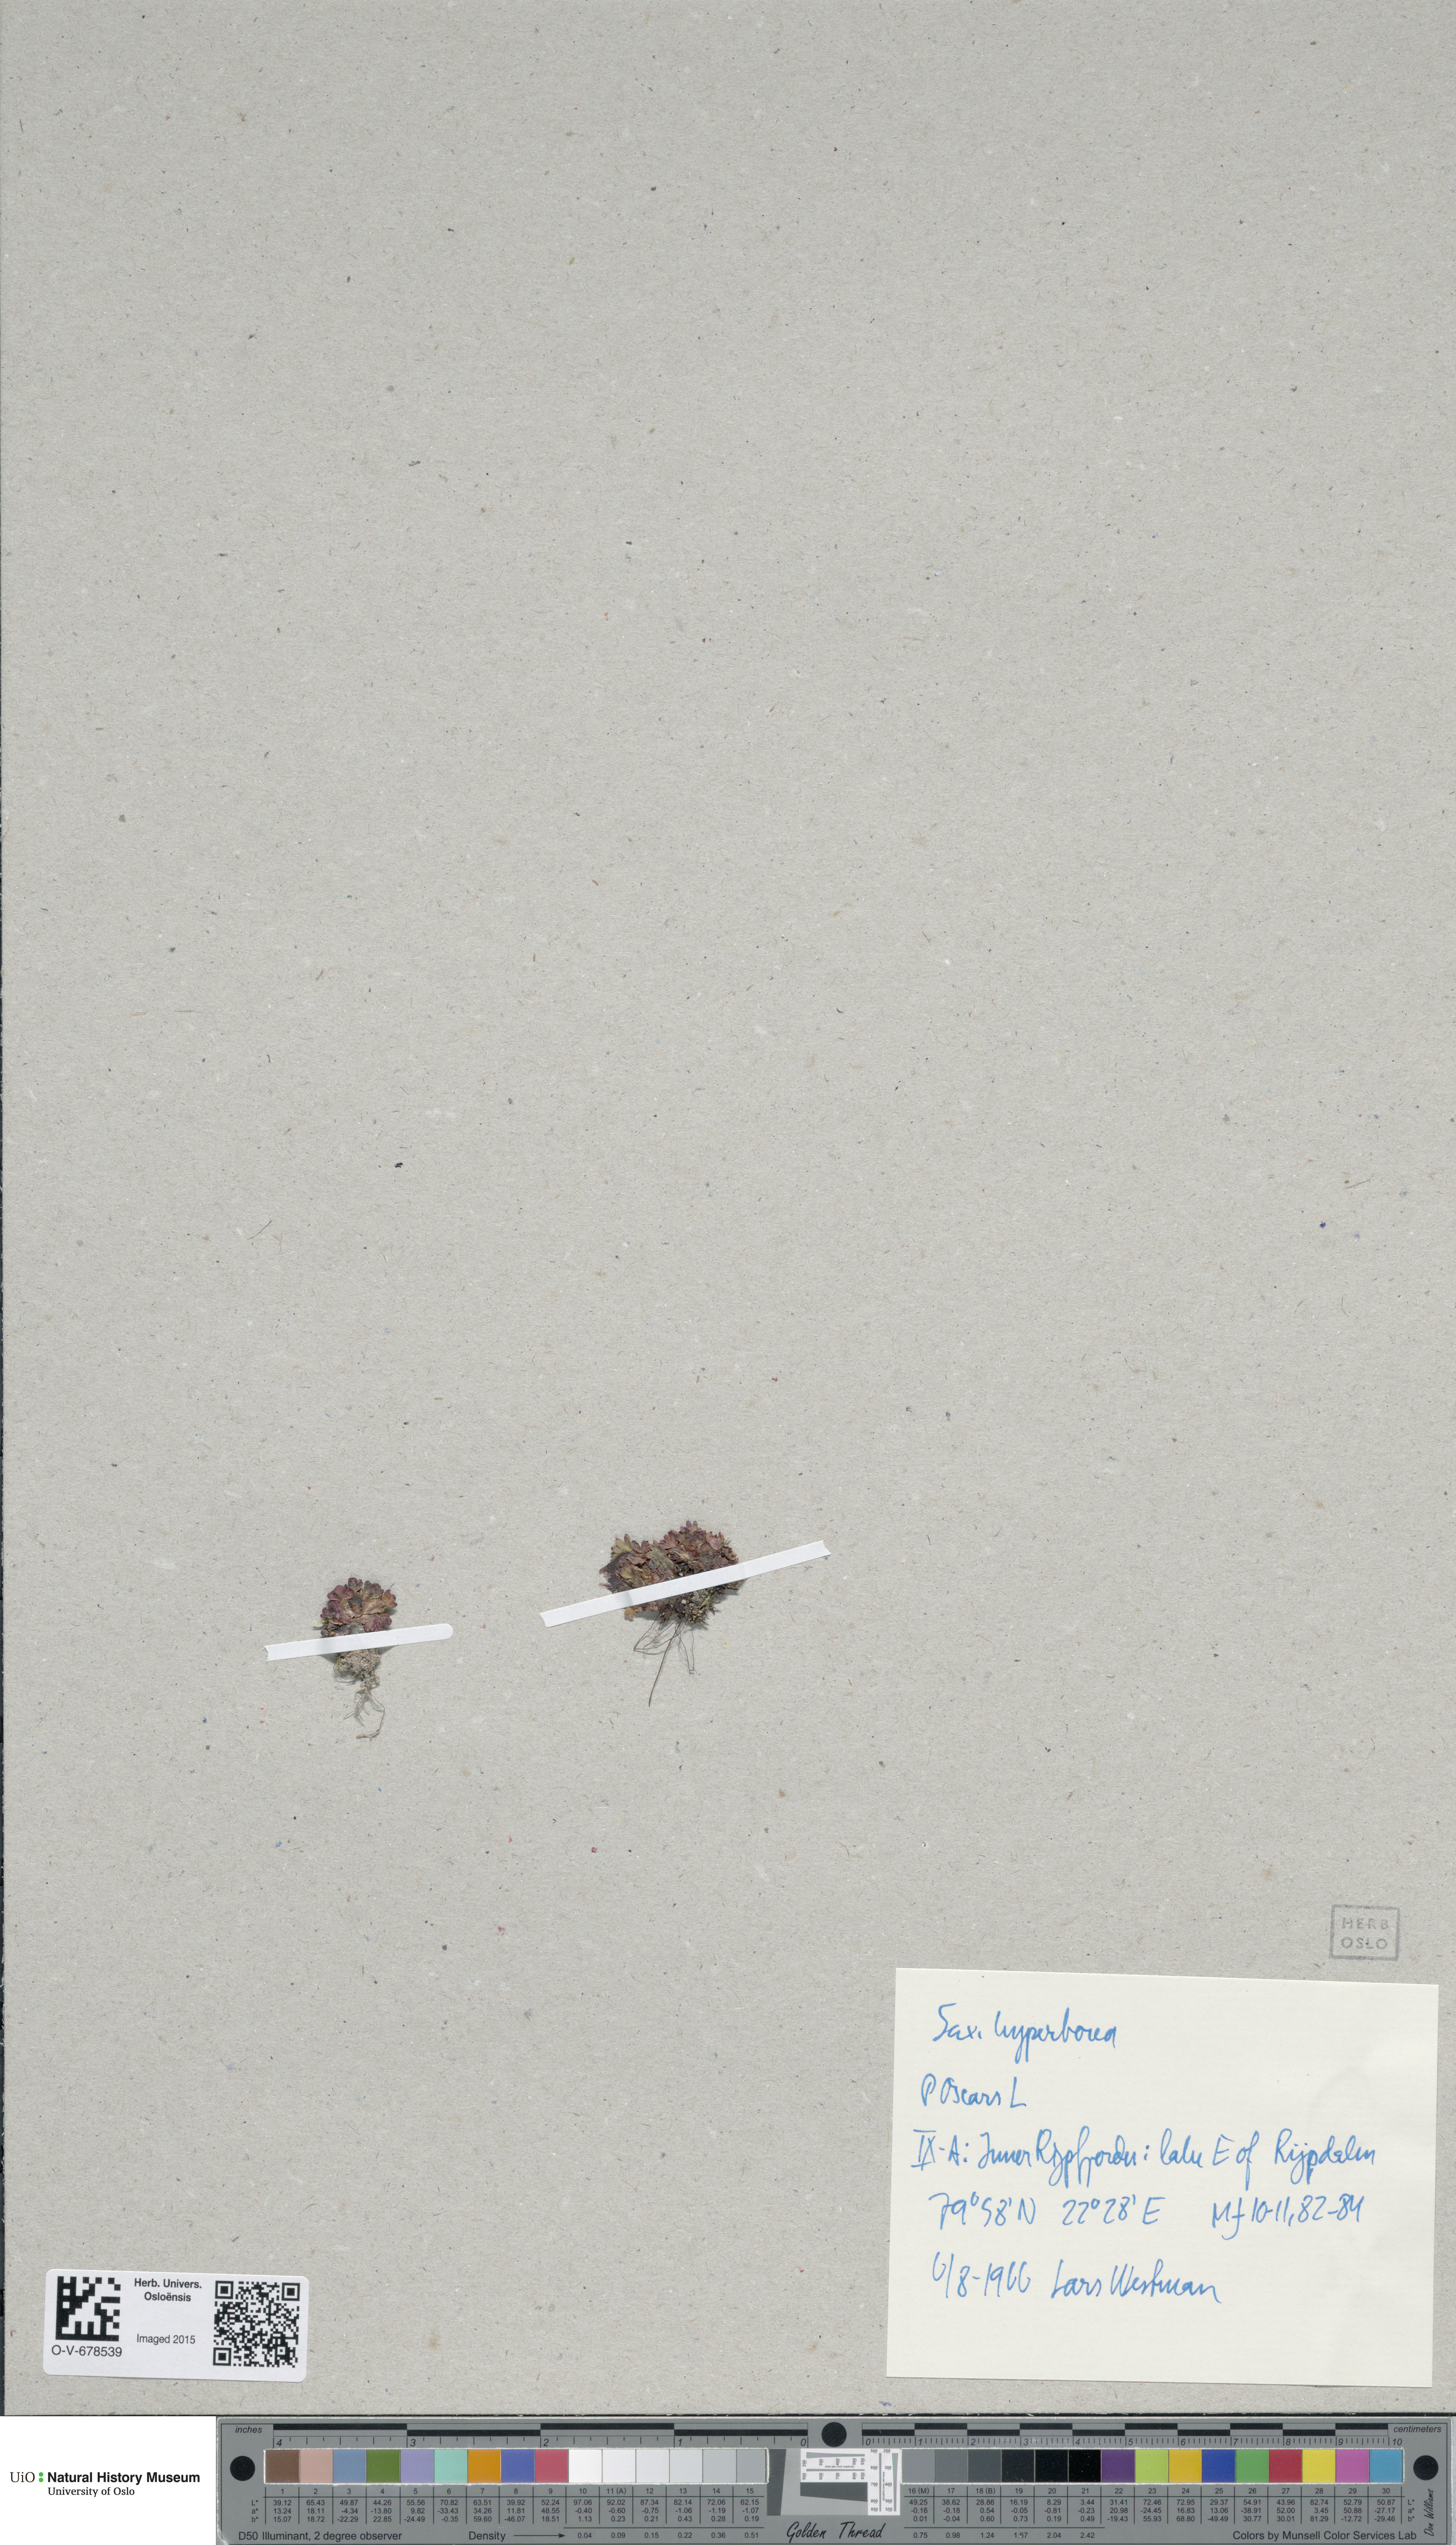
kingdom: Plantae
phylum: Tracheophyta
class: Magnoliopsida
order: Saxifragales
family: Saxifragaceae
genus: Saxifraga
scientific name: Saxifraga hyperborea
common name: Arctic saxifrage
